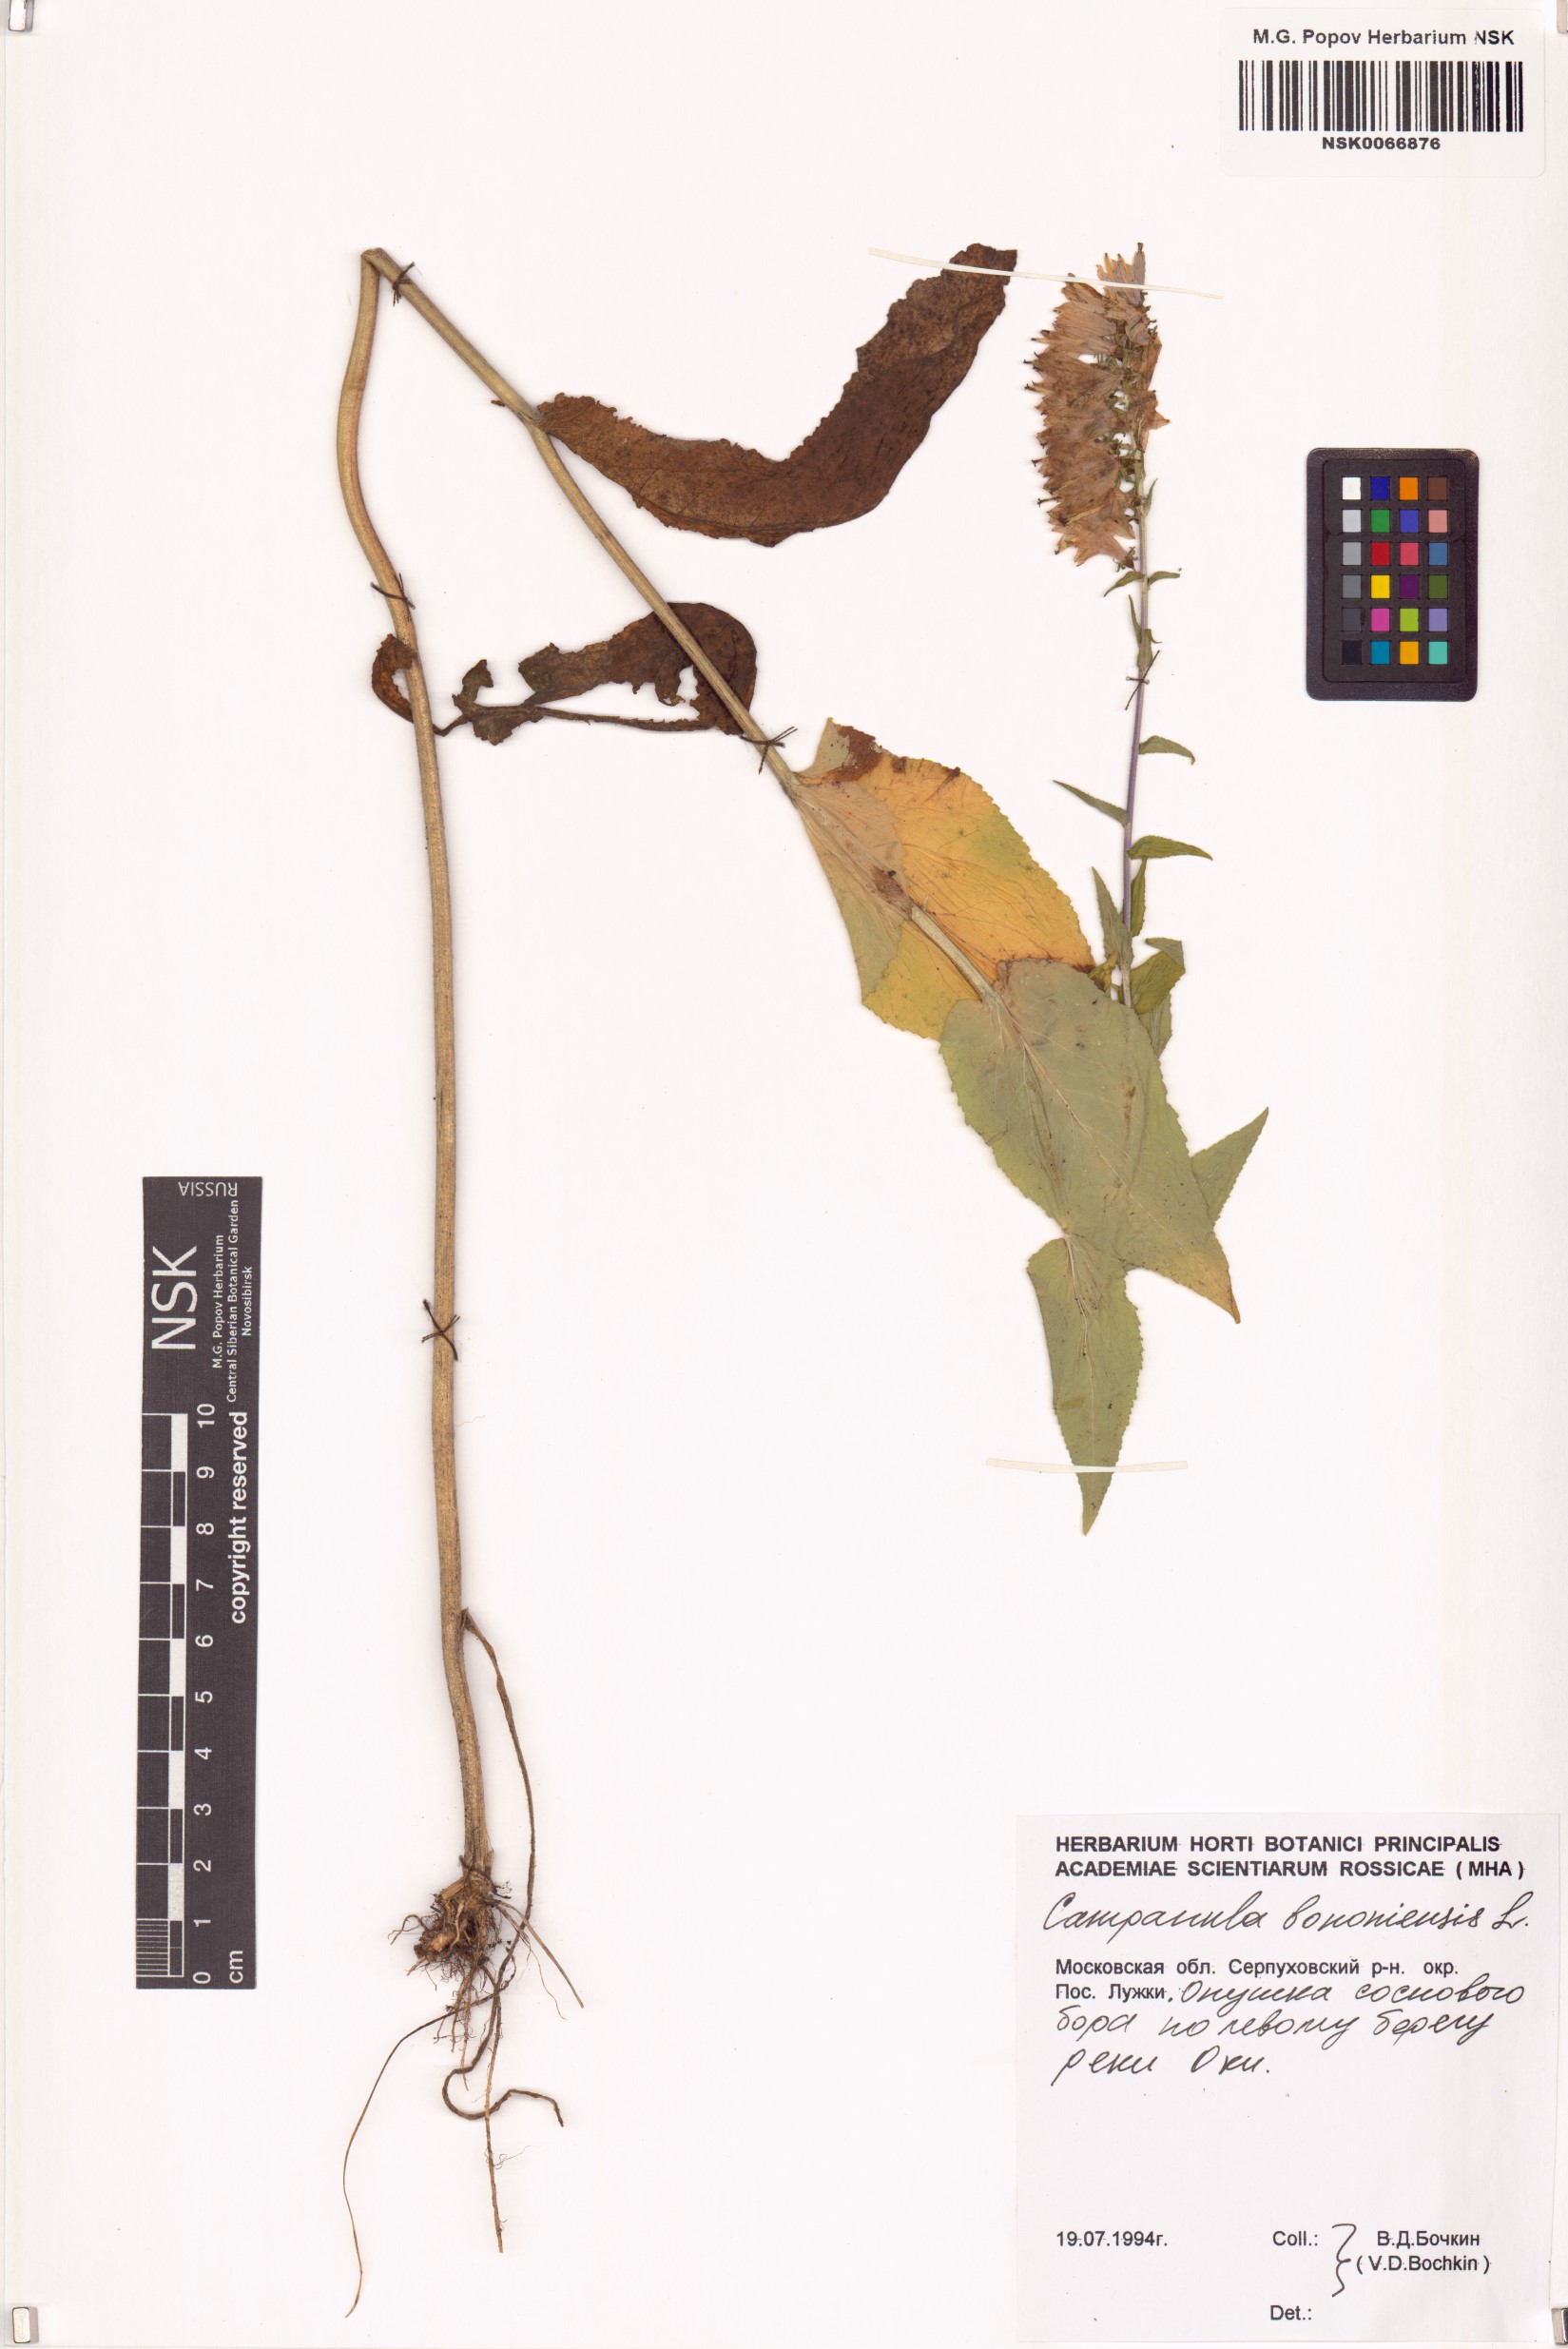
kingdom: Plantae
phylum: Tracheophyta
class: Magnoliopsida
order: Asterales
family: Campanulaceae
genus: Campanula
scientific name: Campanula bononiensis
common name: Pale bellflower
